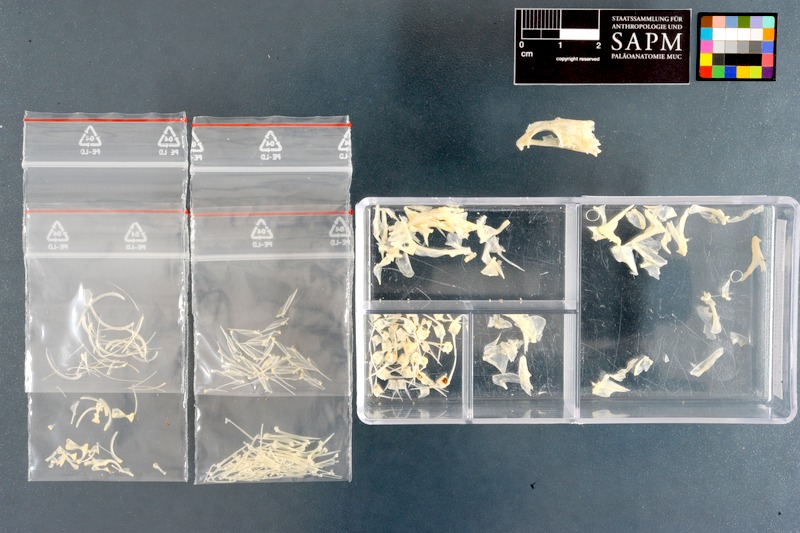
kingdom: Animalia
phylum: Chordata
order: Perciformes
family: Labrisomidae
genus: Labrisomus
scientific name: Labrisomus nuchipinnis
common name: Hairy blenny
